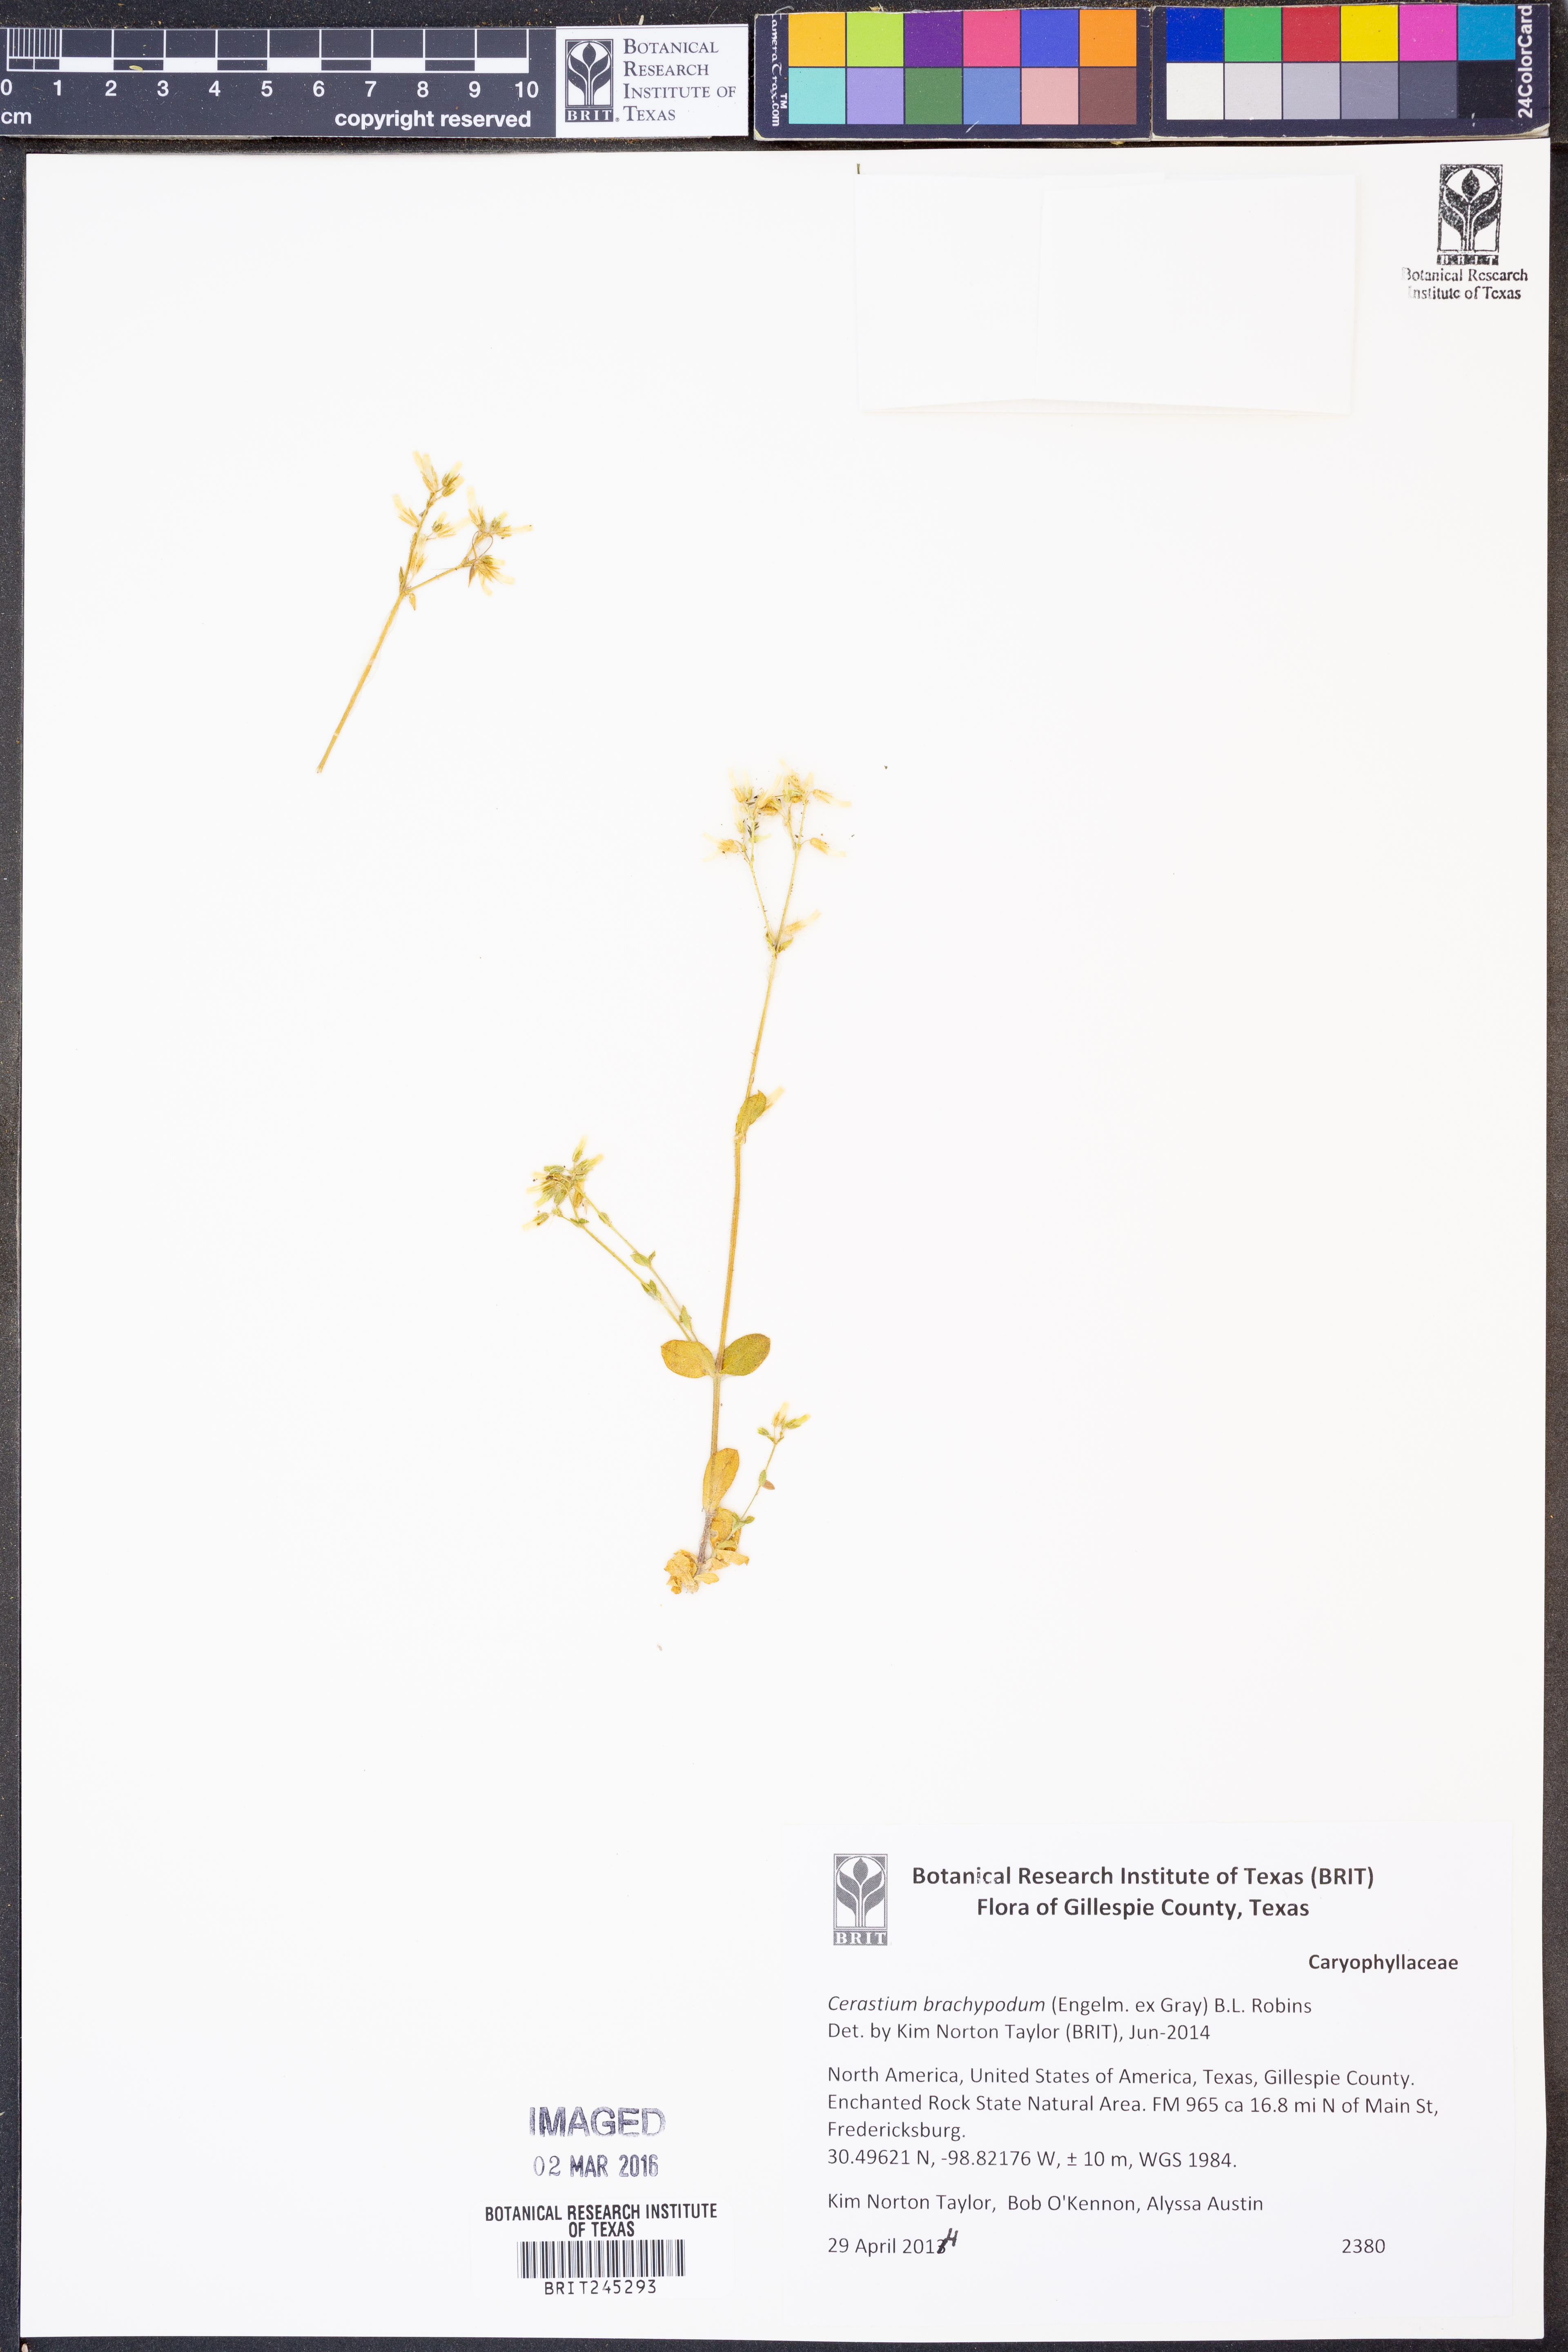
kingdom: Plantae
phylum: Tracheophyta
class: Magnoliopsida
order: Caryophyllales
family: Caryophyllaceae
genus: Cerastium
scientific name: Cerastium brachypodum
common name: Short-pedicelled nodding chickweed
